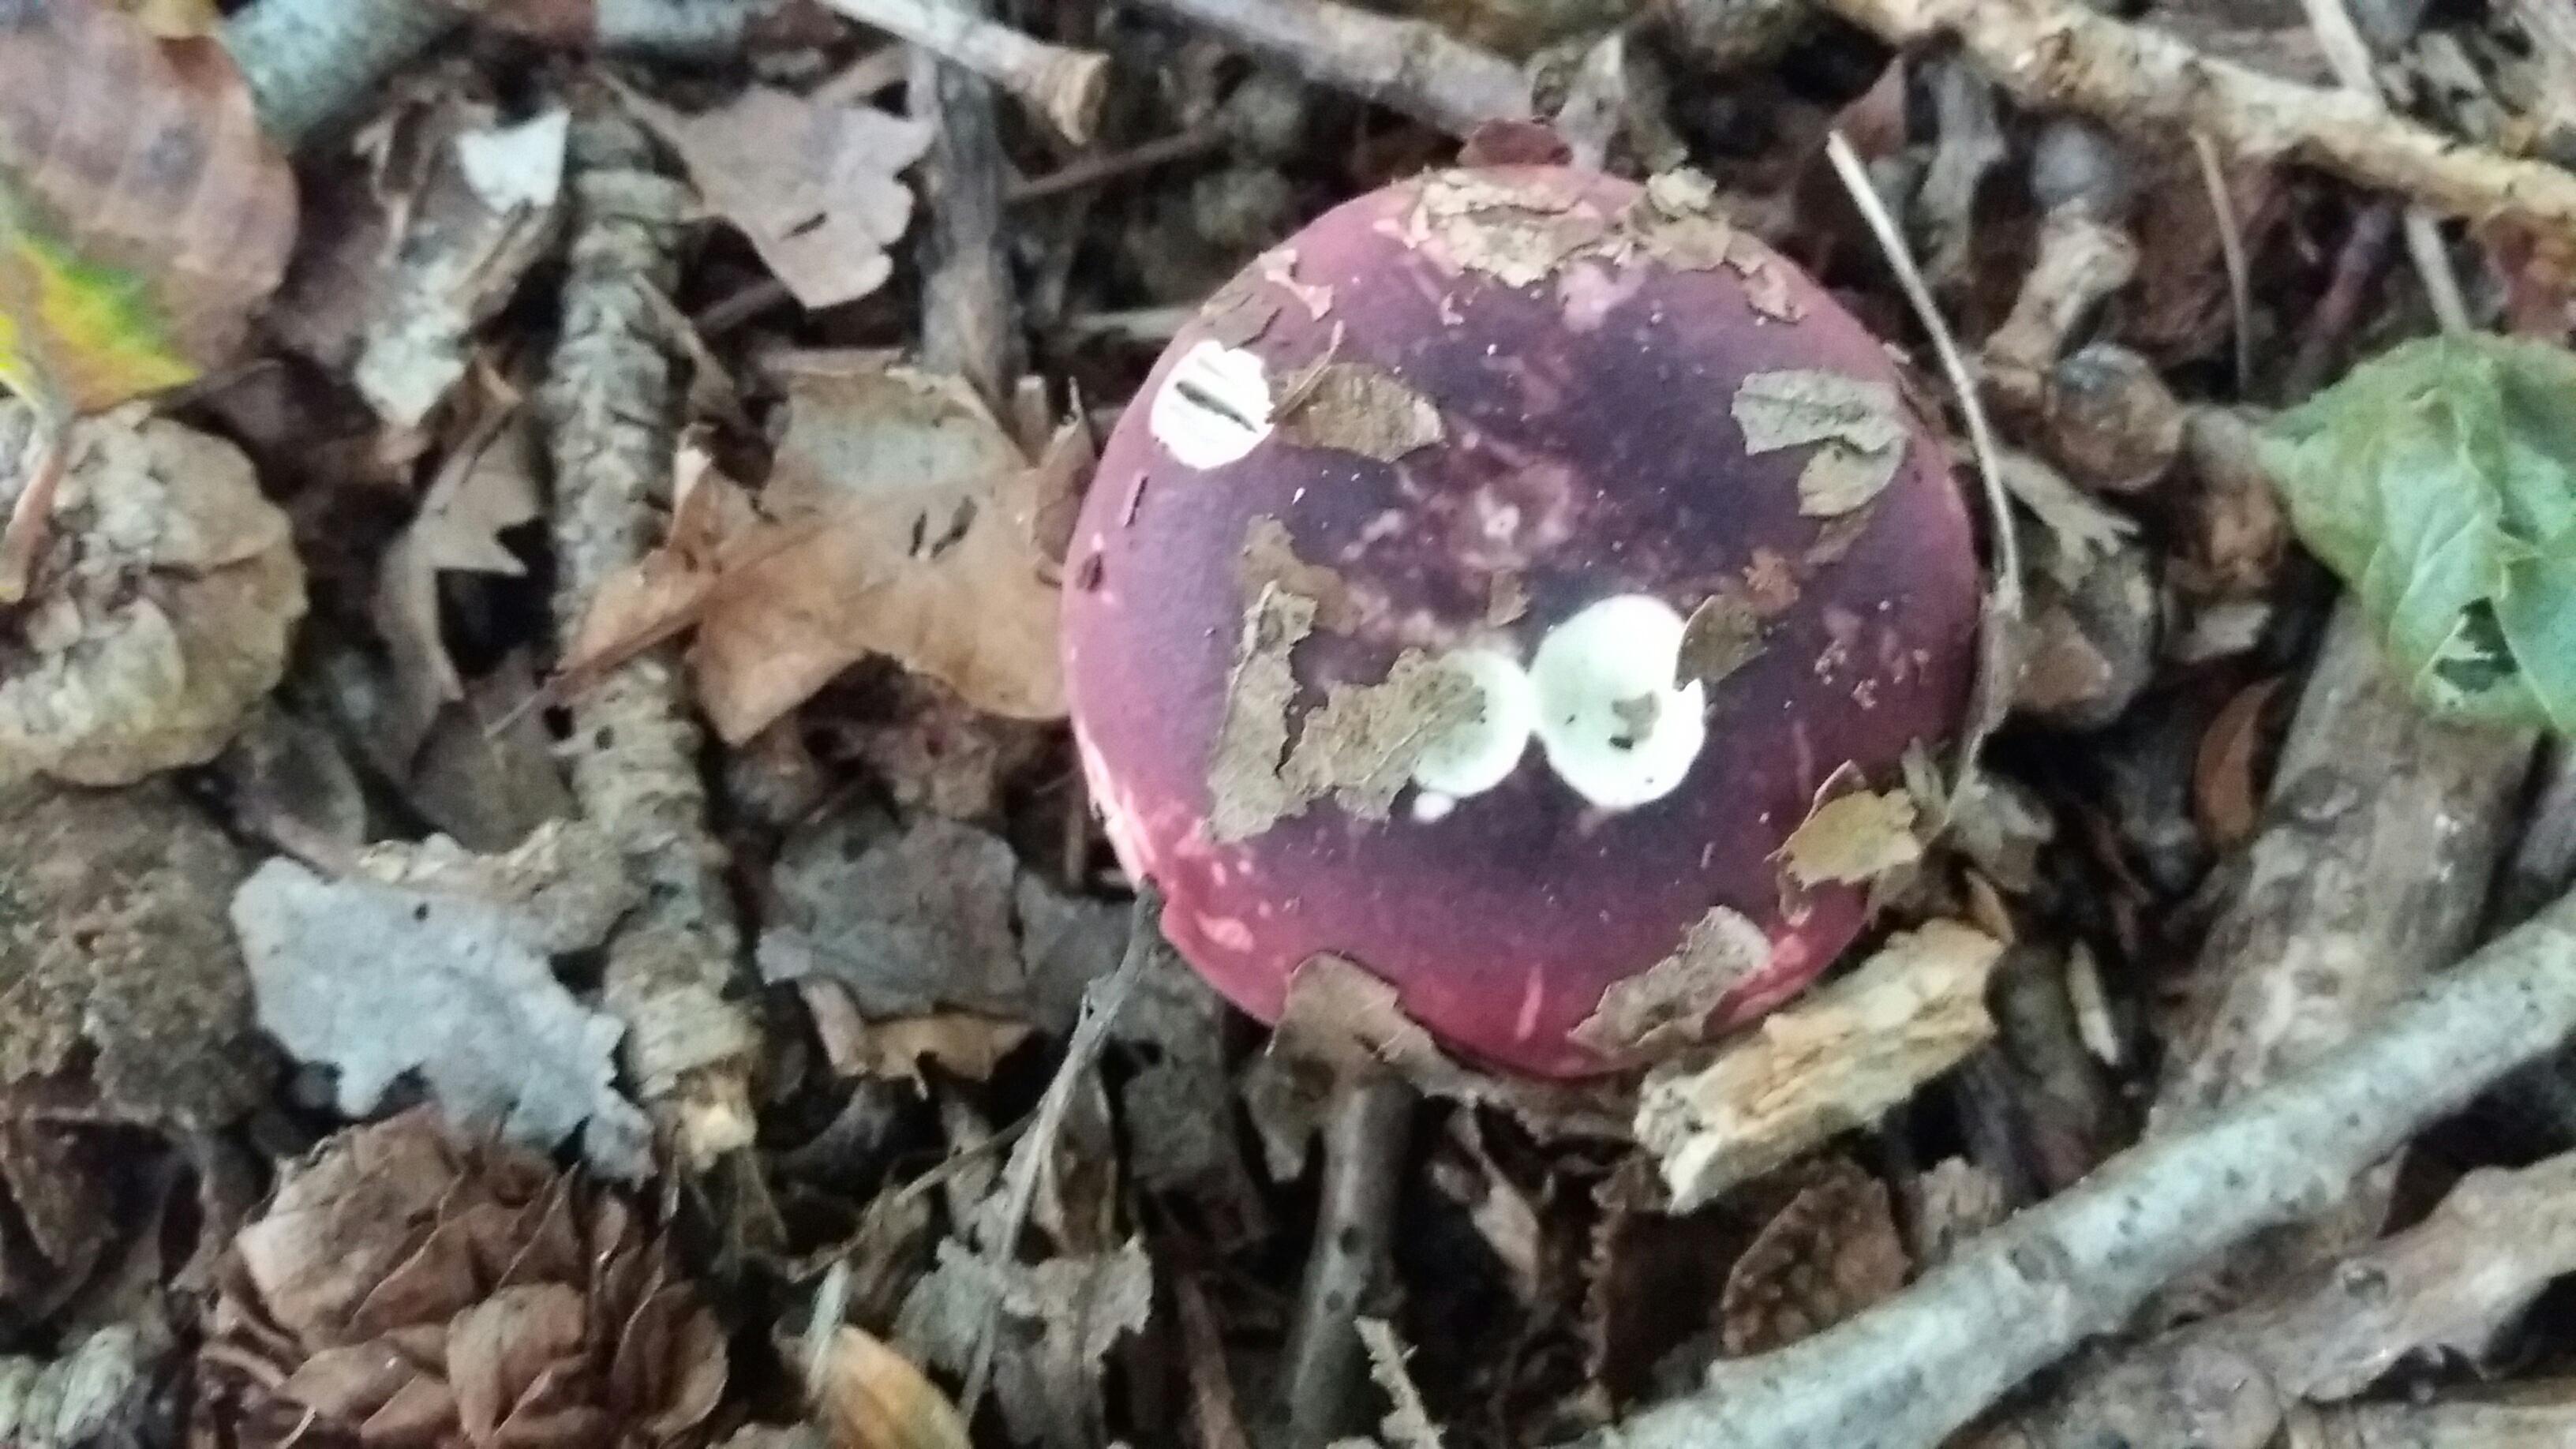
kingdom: Fungi
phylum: Basidiomycota
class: Agaricomycetes
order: Russulales
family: Russulaceae
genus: Russula
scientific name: Russula atropurpurea
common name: purpurbroget skørhat
